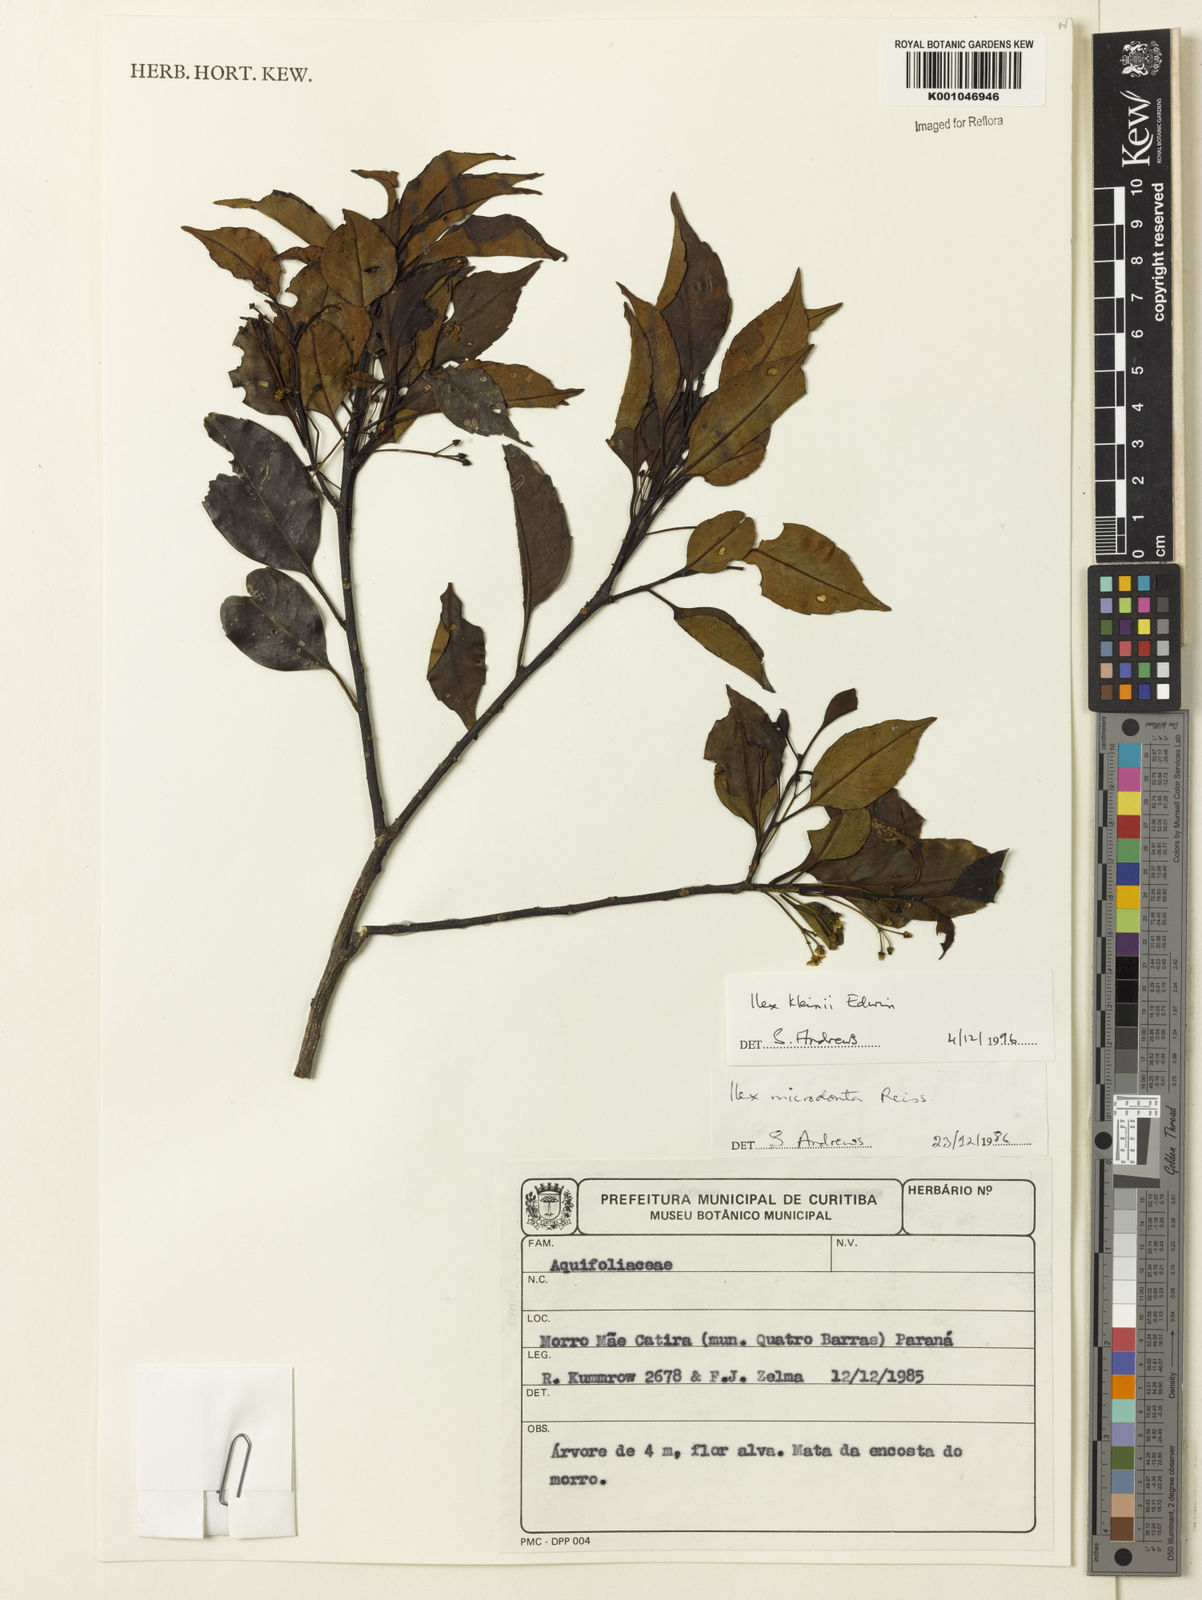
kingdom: Plantae
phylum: Tracheophyta
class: Magnoliopsida
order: Aquifoliales
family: Aquifoliaceae
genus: Ilex
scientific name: Ilex taubertiana
